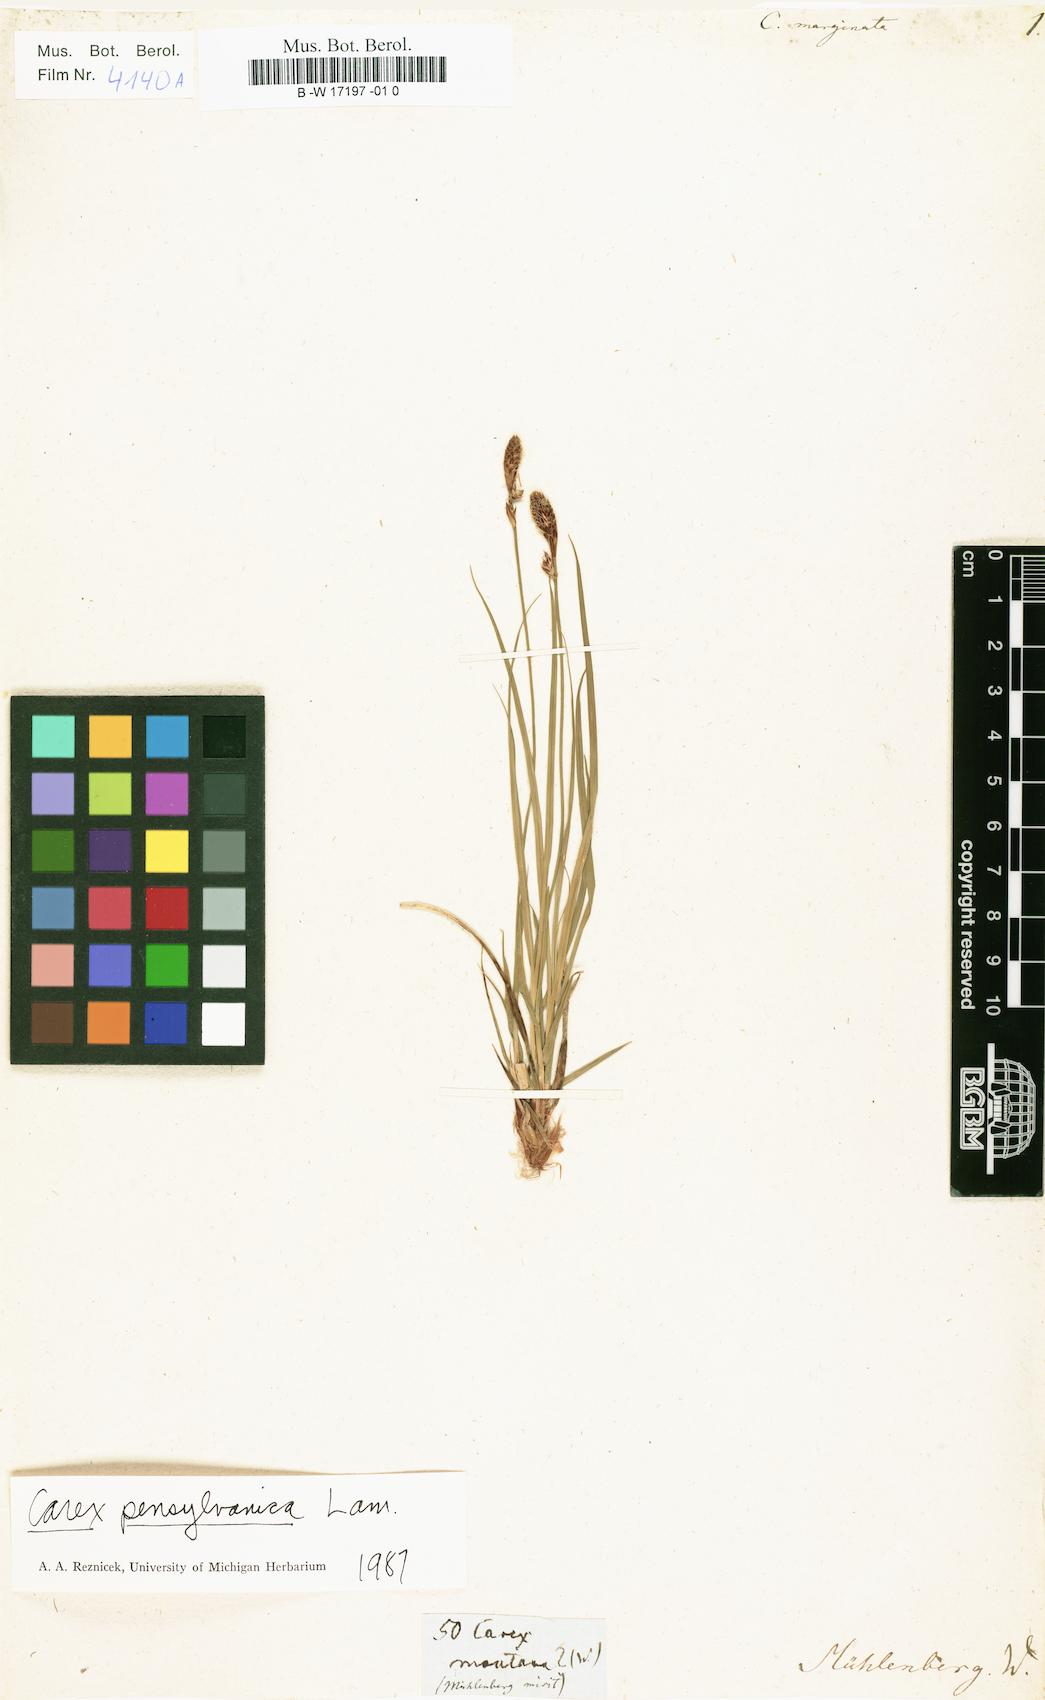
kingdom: Plantae
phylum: Tracheophyta
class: Liliopsida
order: Poales
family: Cyperaceae
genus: Carex
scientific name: Carex pensylvanica
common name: Common oak sedge
